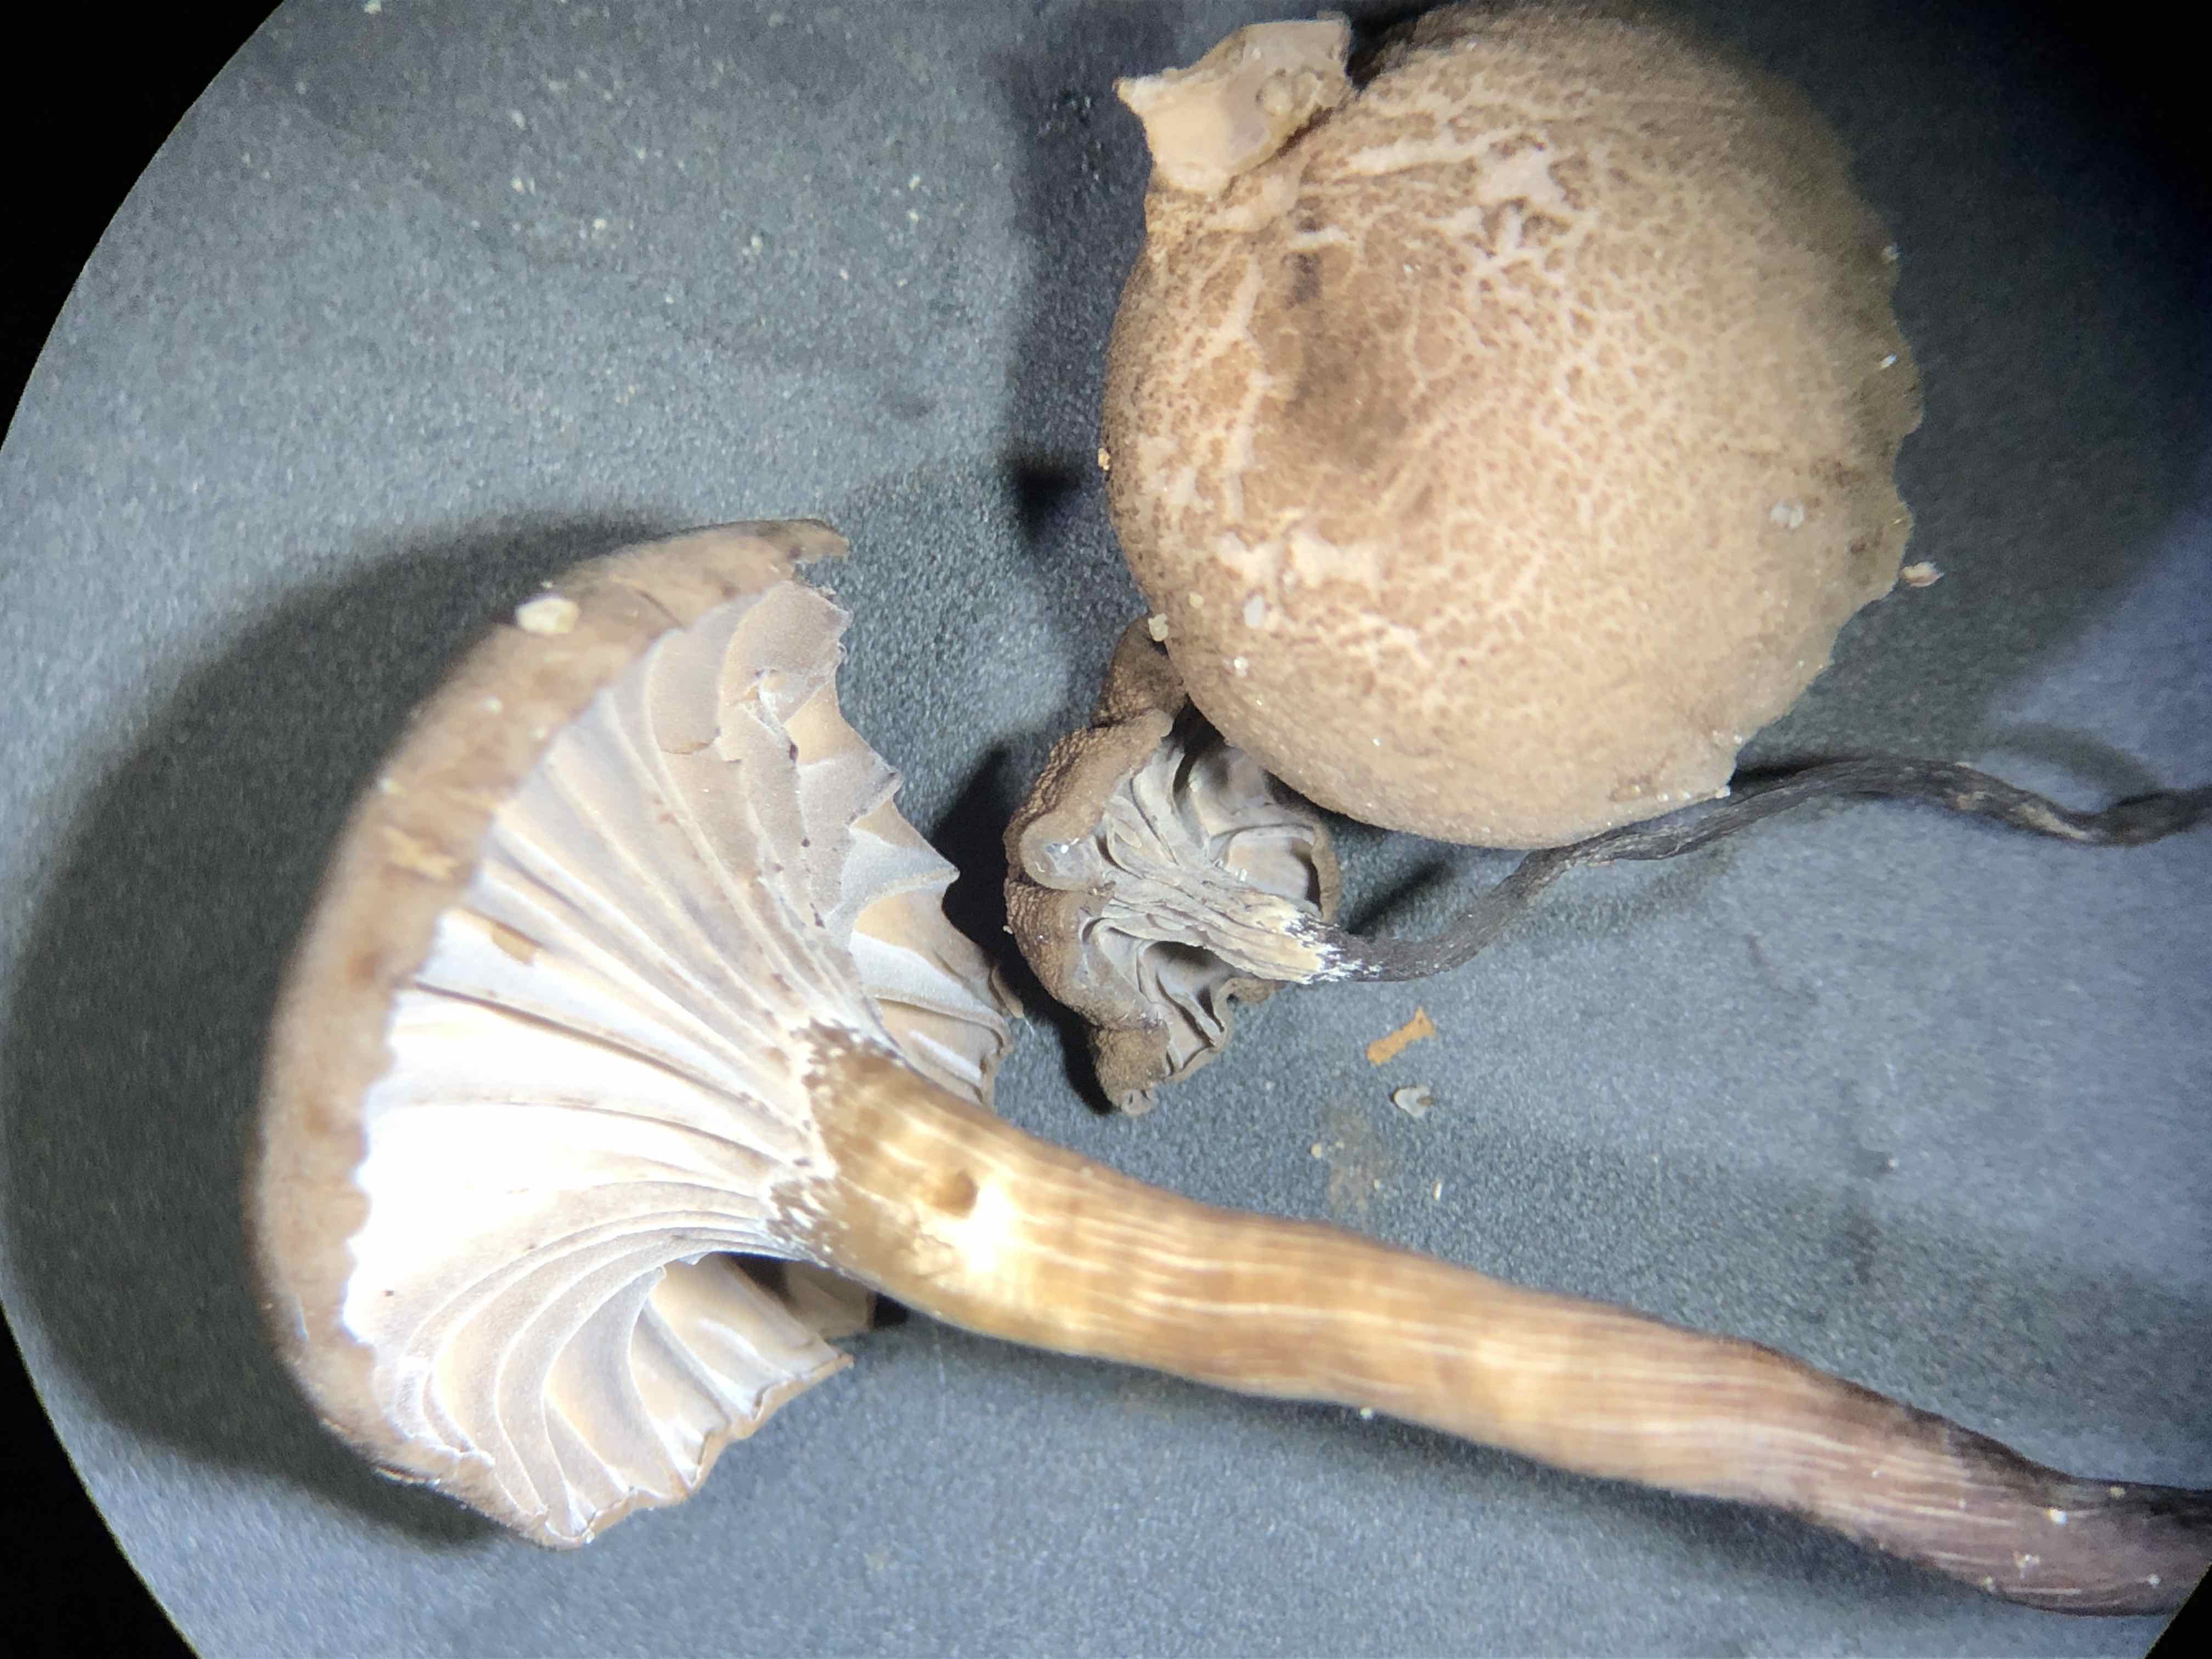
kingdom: Fungi
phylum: Basidiomycota
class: Agaricomycetes
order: Agaricales
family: Clavariaceae
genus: Hodophilus
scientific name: Hodophilus foetens
